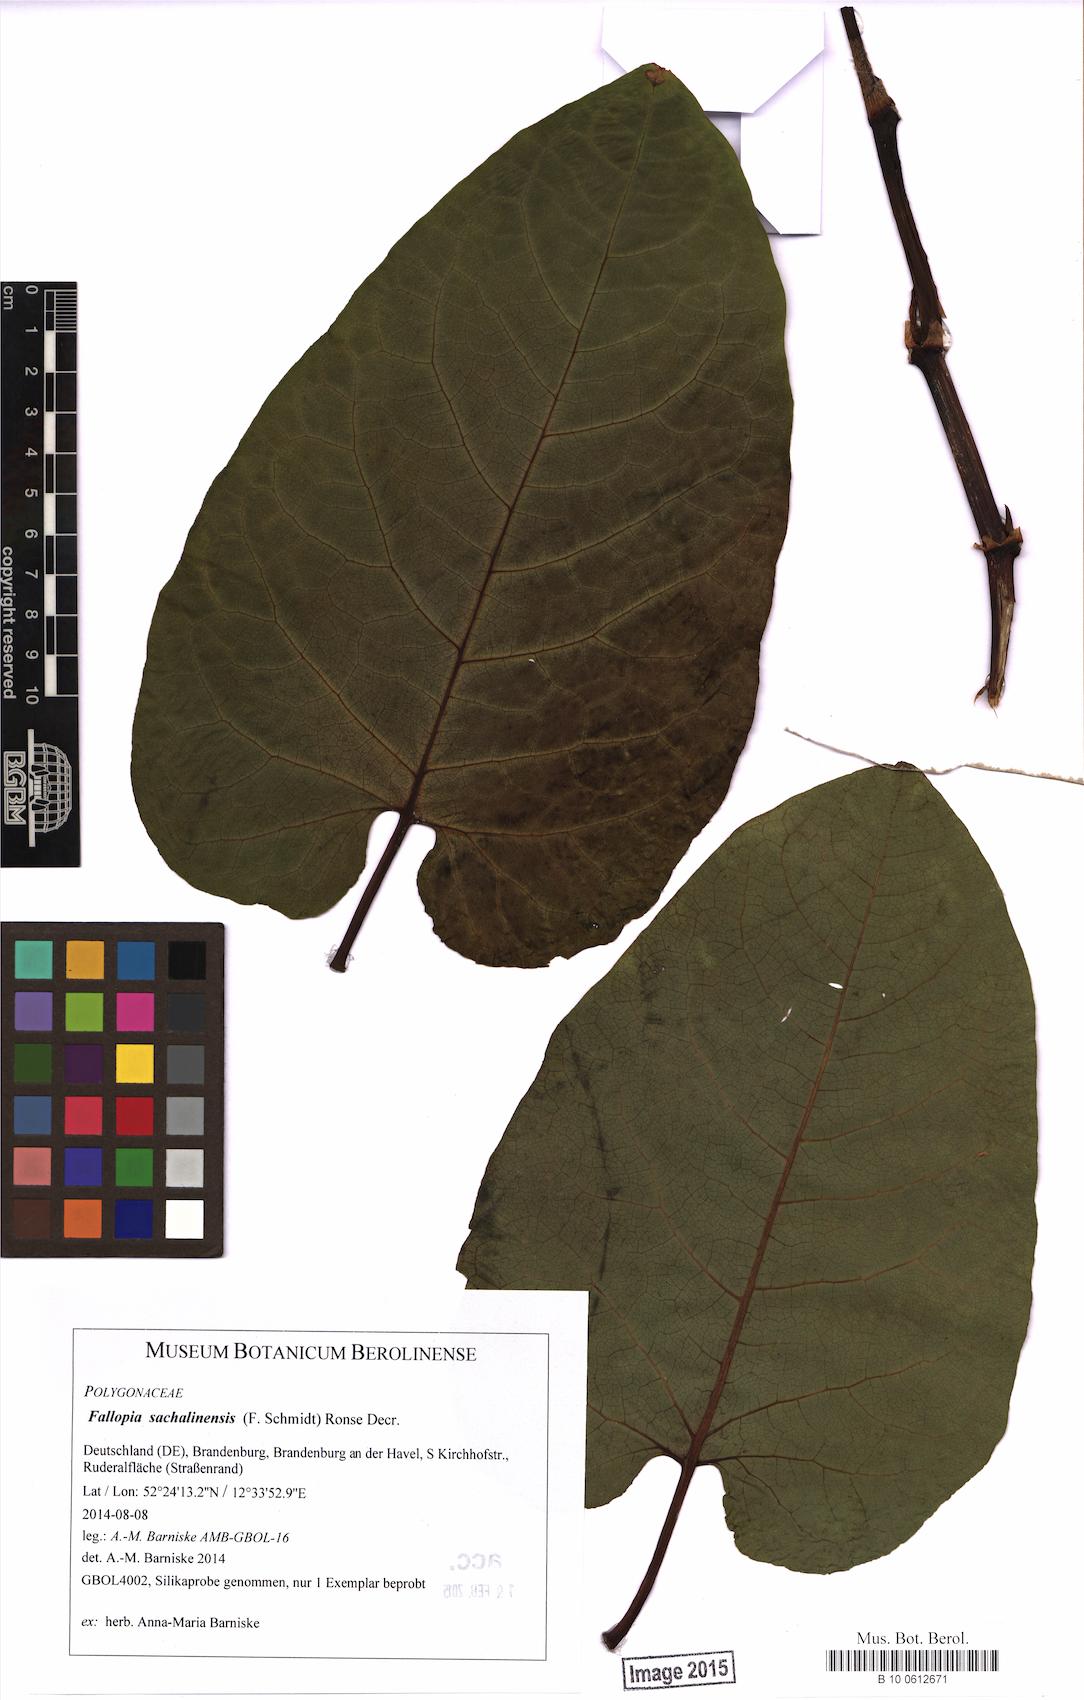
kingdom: Plantae
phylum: Tracheophyta
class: Magnoliopsida
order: Caryophyllales
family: Polygonaceae
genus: Reynoutria
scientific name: Reynoutria sachalinensis
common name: Giant knotweed
